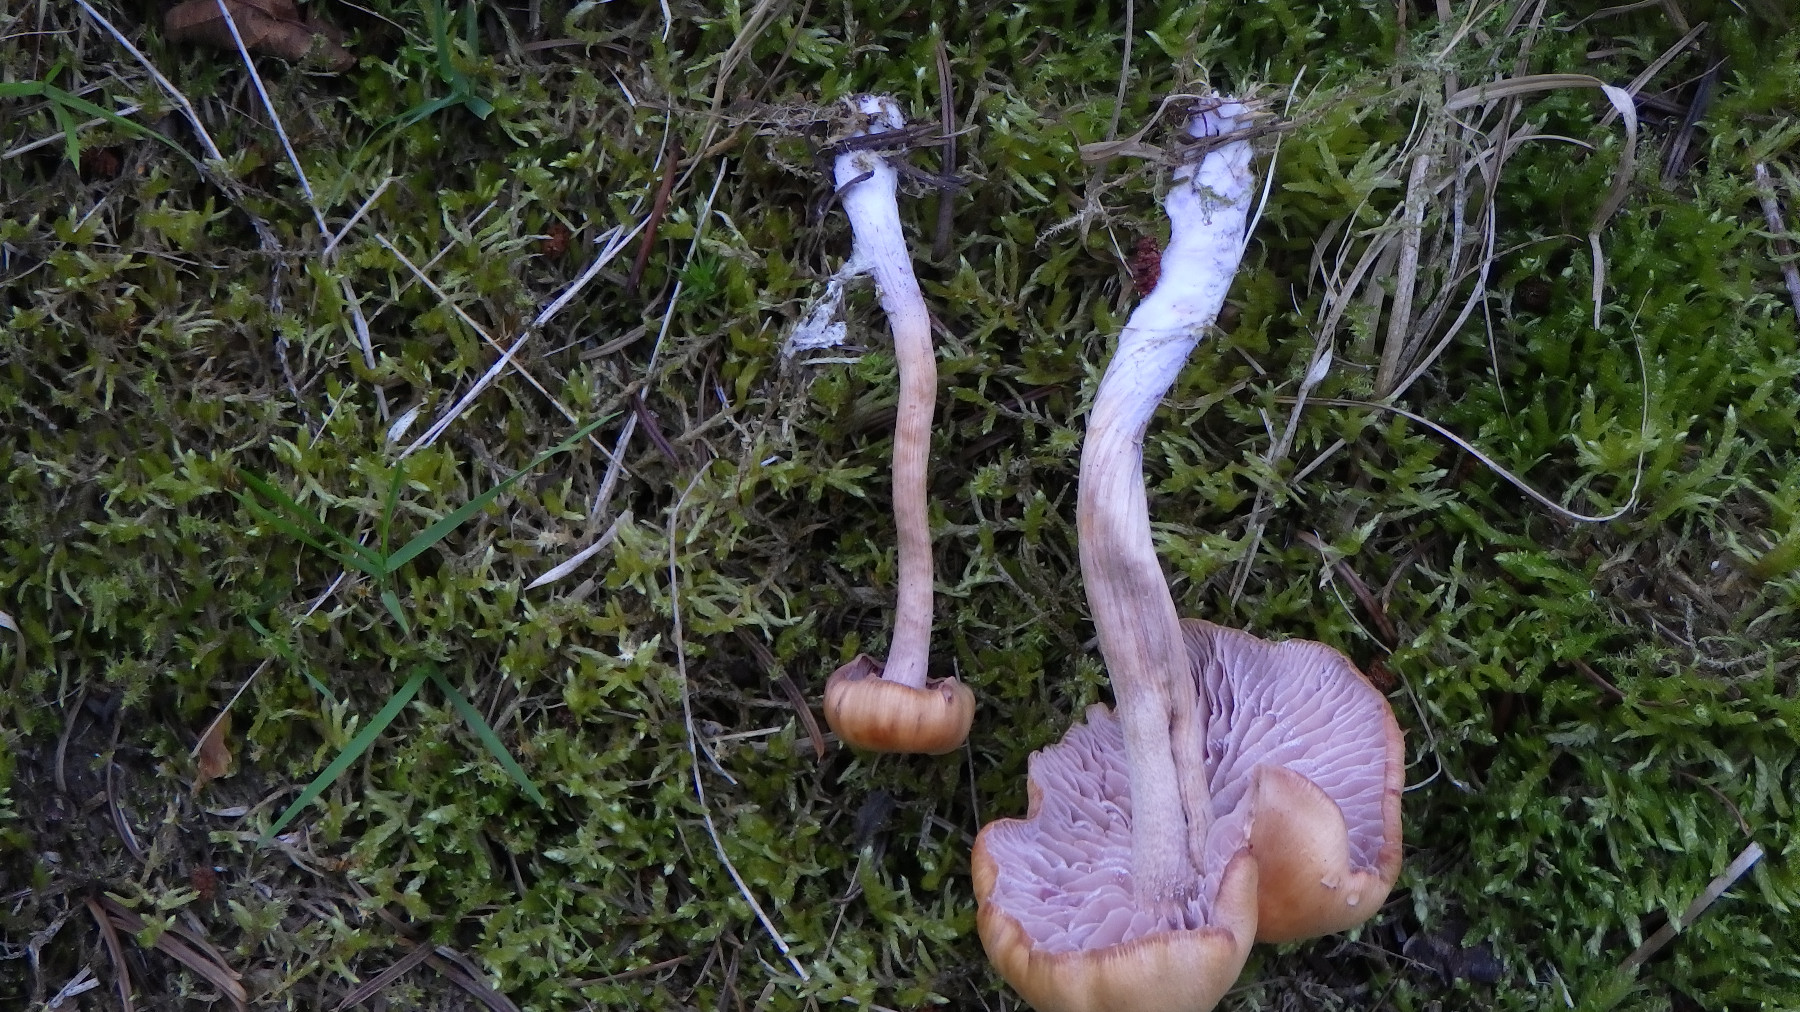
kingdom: Fungi
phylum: Basidiomycota
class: Agaricomycetes
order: Agaricales
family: Hydnangiaceae
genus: Laccaria
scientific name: Laccaria bicolor
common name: tvefarvet ametysthat
